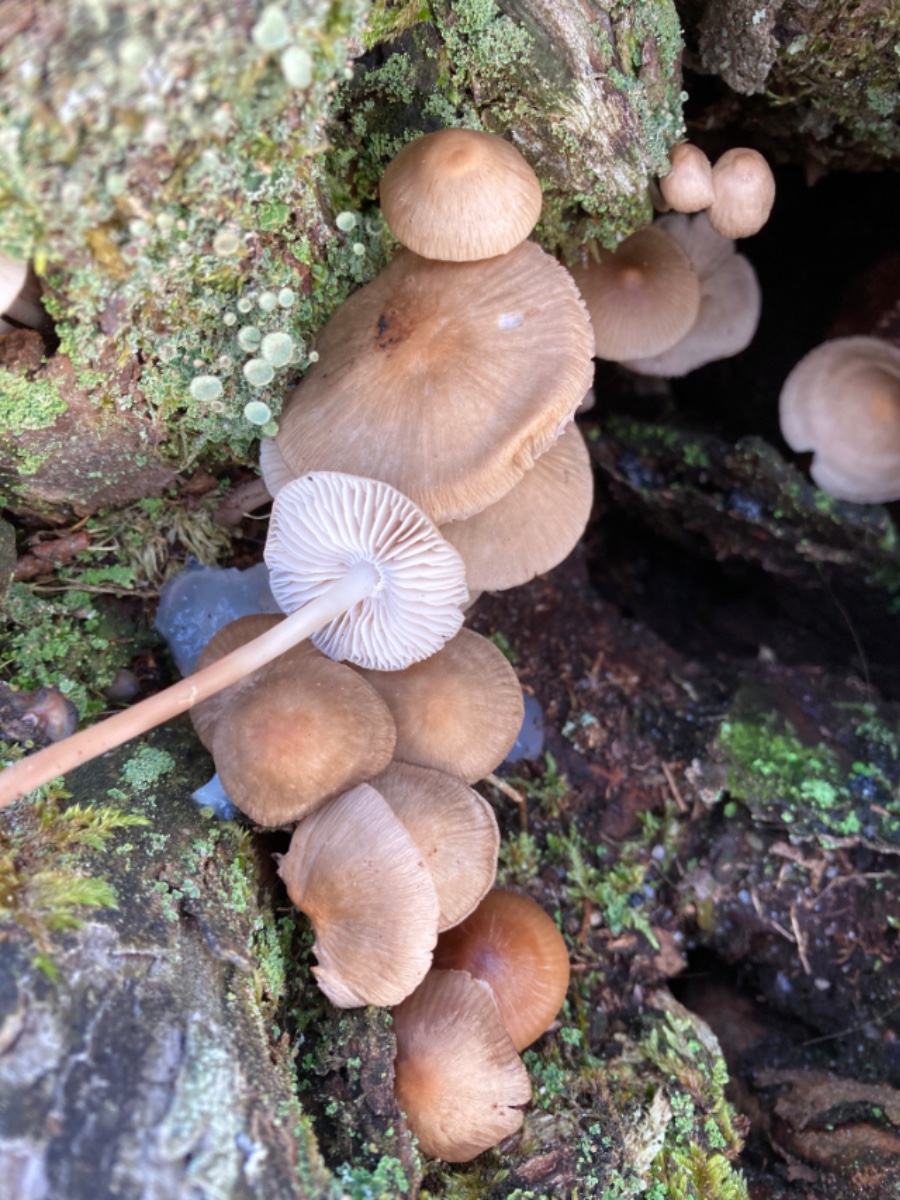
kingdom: Fungi
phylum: Basidiomycota
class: Agaricomycetes
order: Agaricales
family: Mycenaceae
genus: Mycena
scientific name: Mycena galericulata
